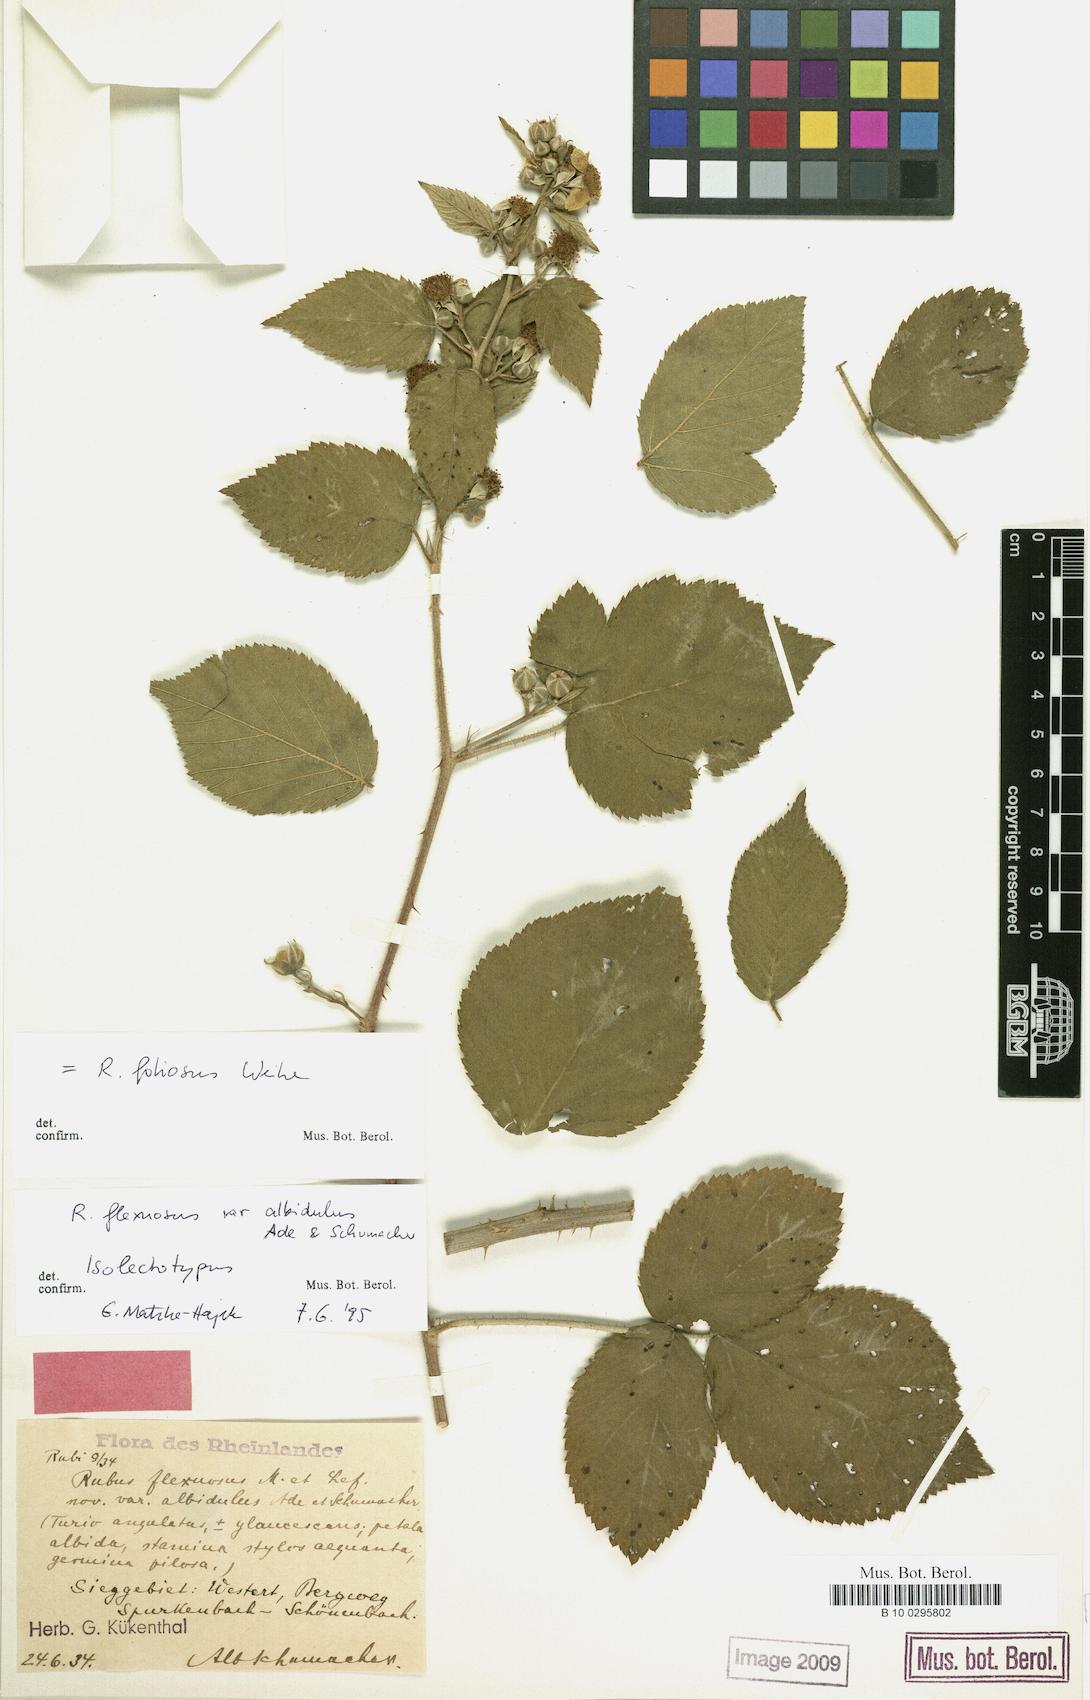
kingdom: Plantae
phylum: Tracheophyta
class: Magnoliopsida
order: Rosales
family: Rosaceae
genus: Rubus
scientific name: Rubus foliosus
